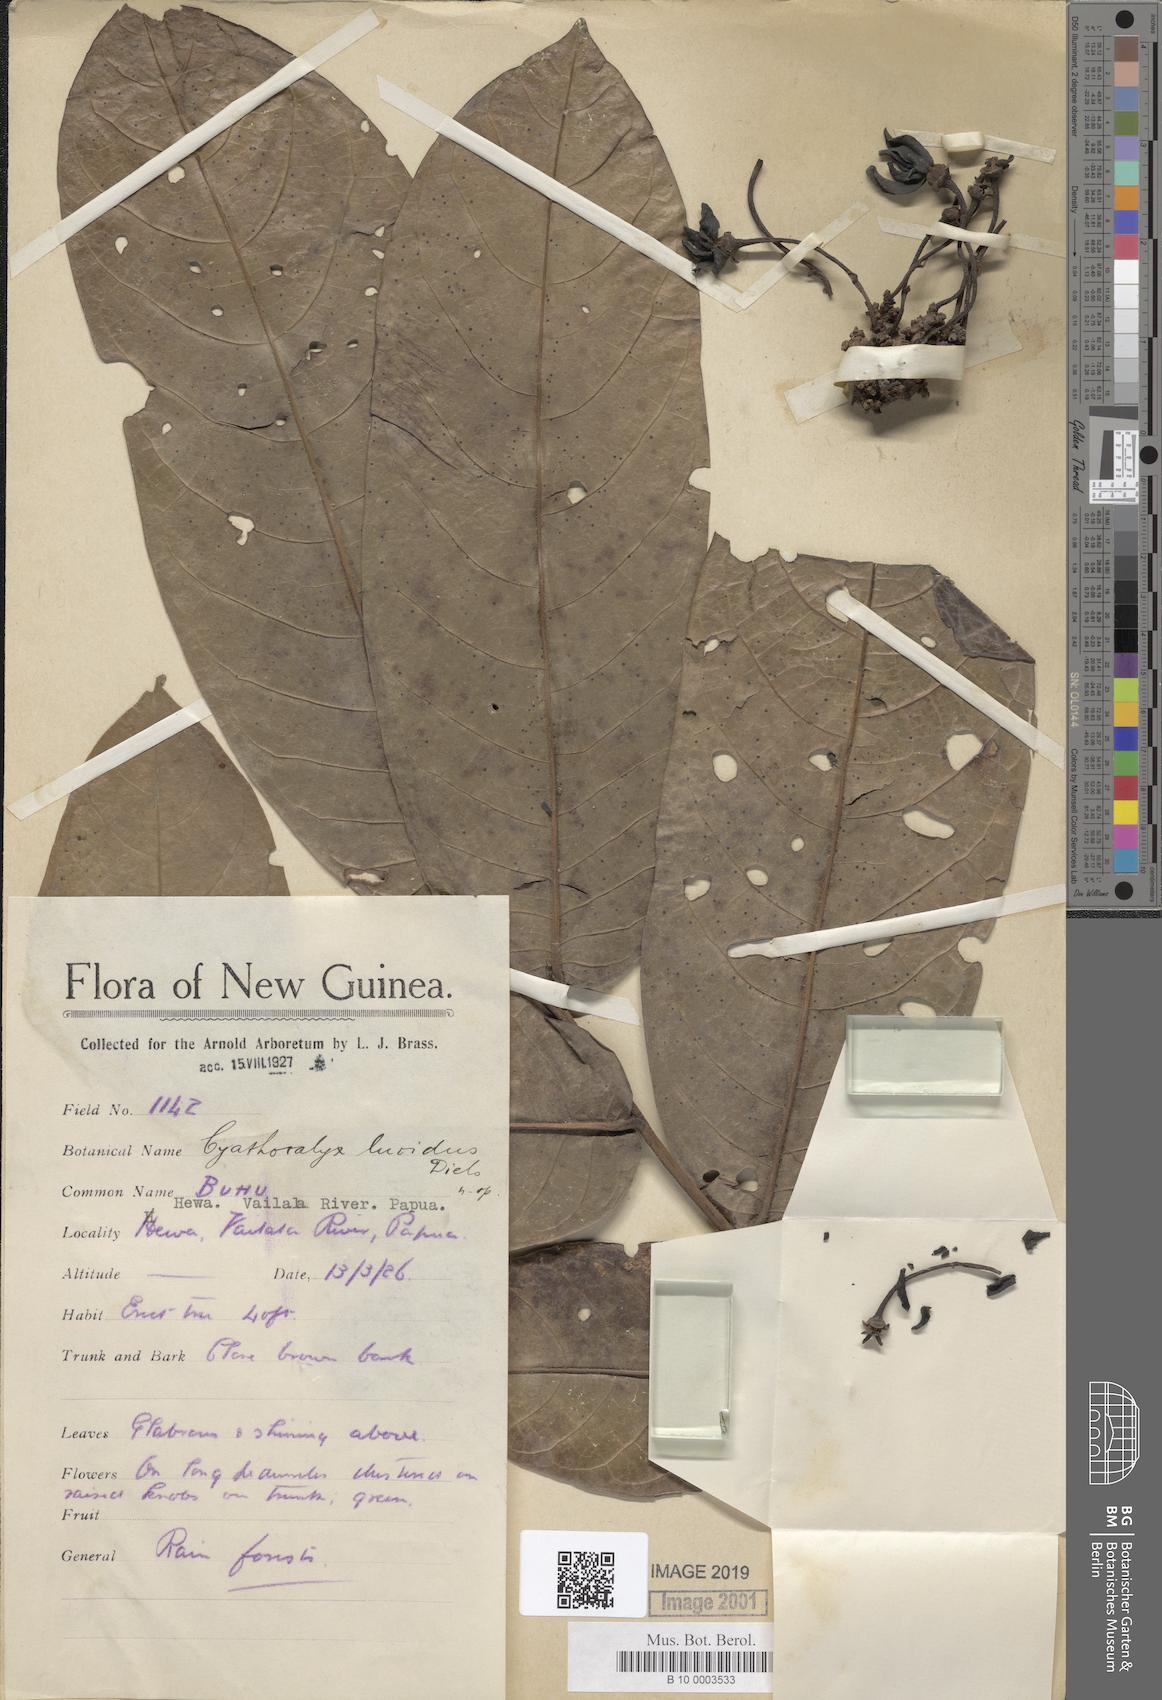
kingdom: Plantae
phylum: Tracheophyta
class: Magnoliopsida
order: Magnoliales
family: Annonaceae
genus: Drepananthus
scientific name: Drepananthus lucidus
